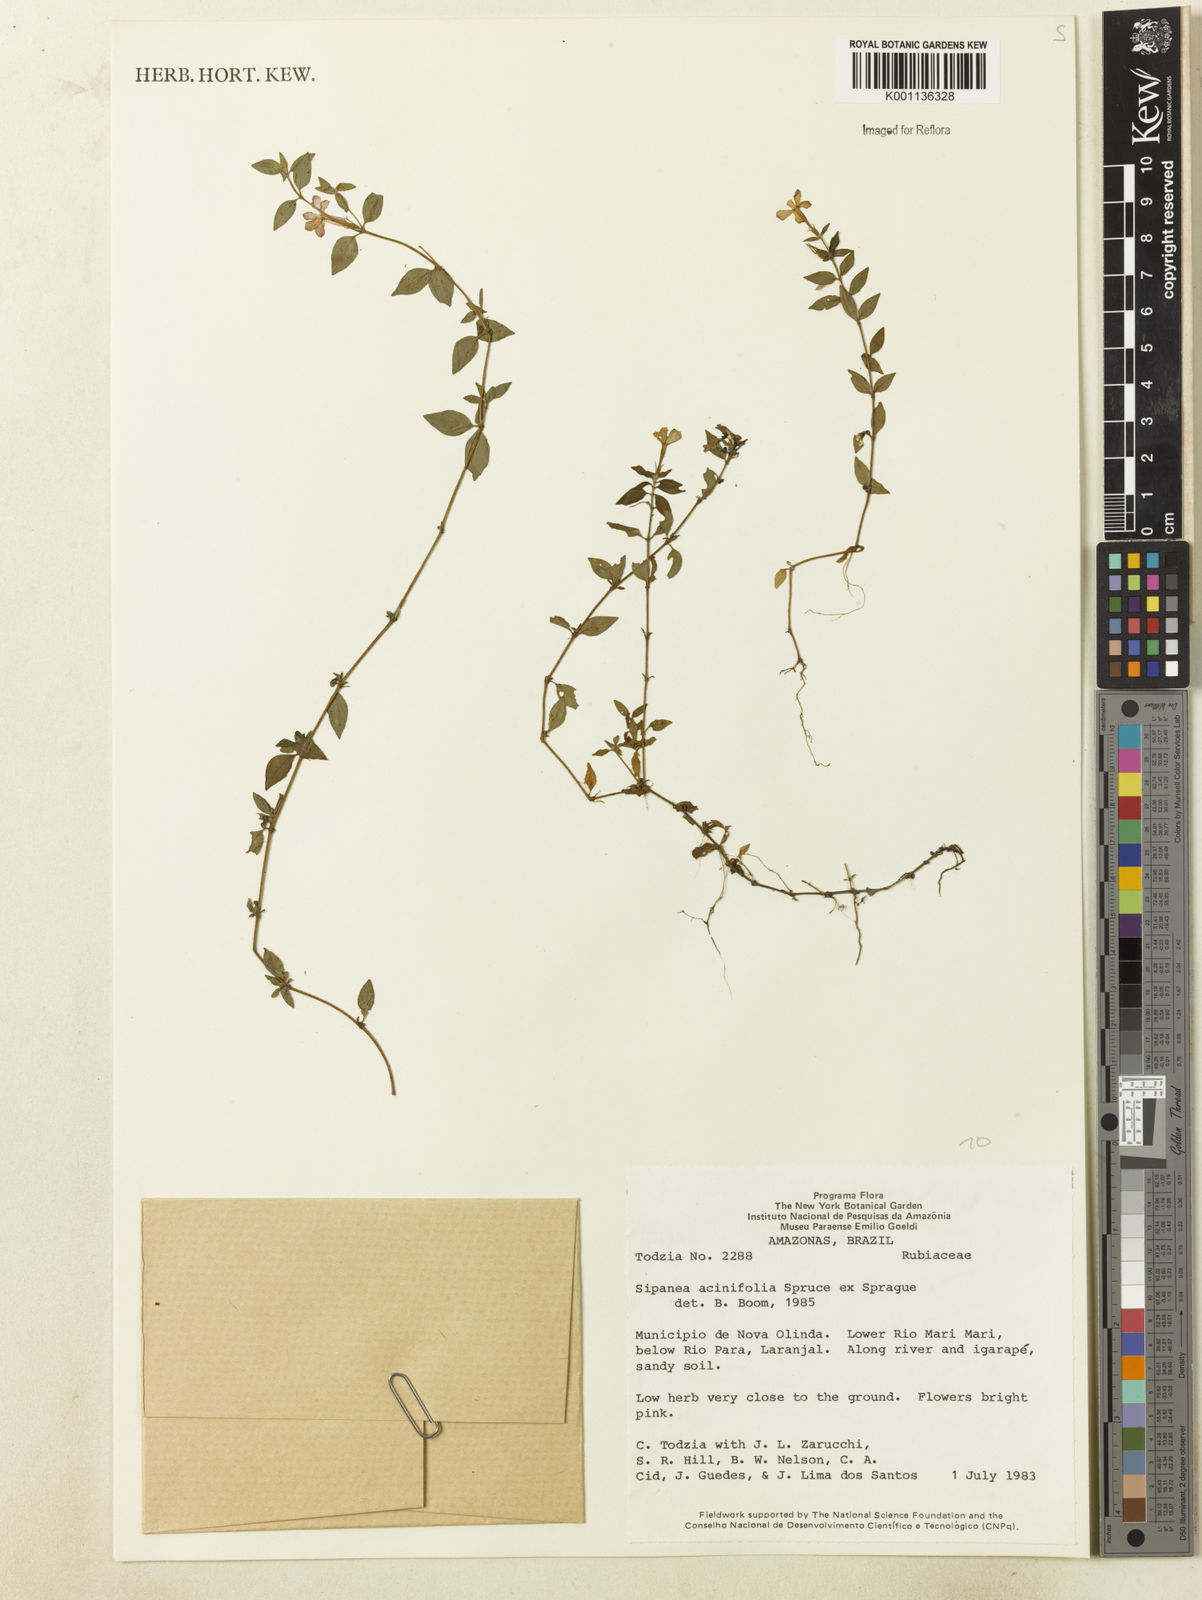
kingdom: Plantae
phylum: Tracheophyta
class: Magnoliopsida
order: Gentianales
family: Rubiaceae
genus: Sipanea
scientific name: Sipanea veris
